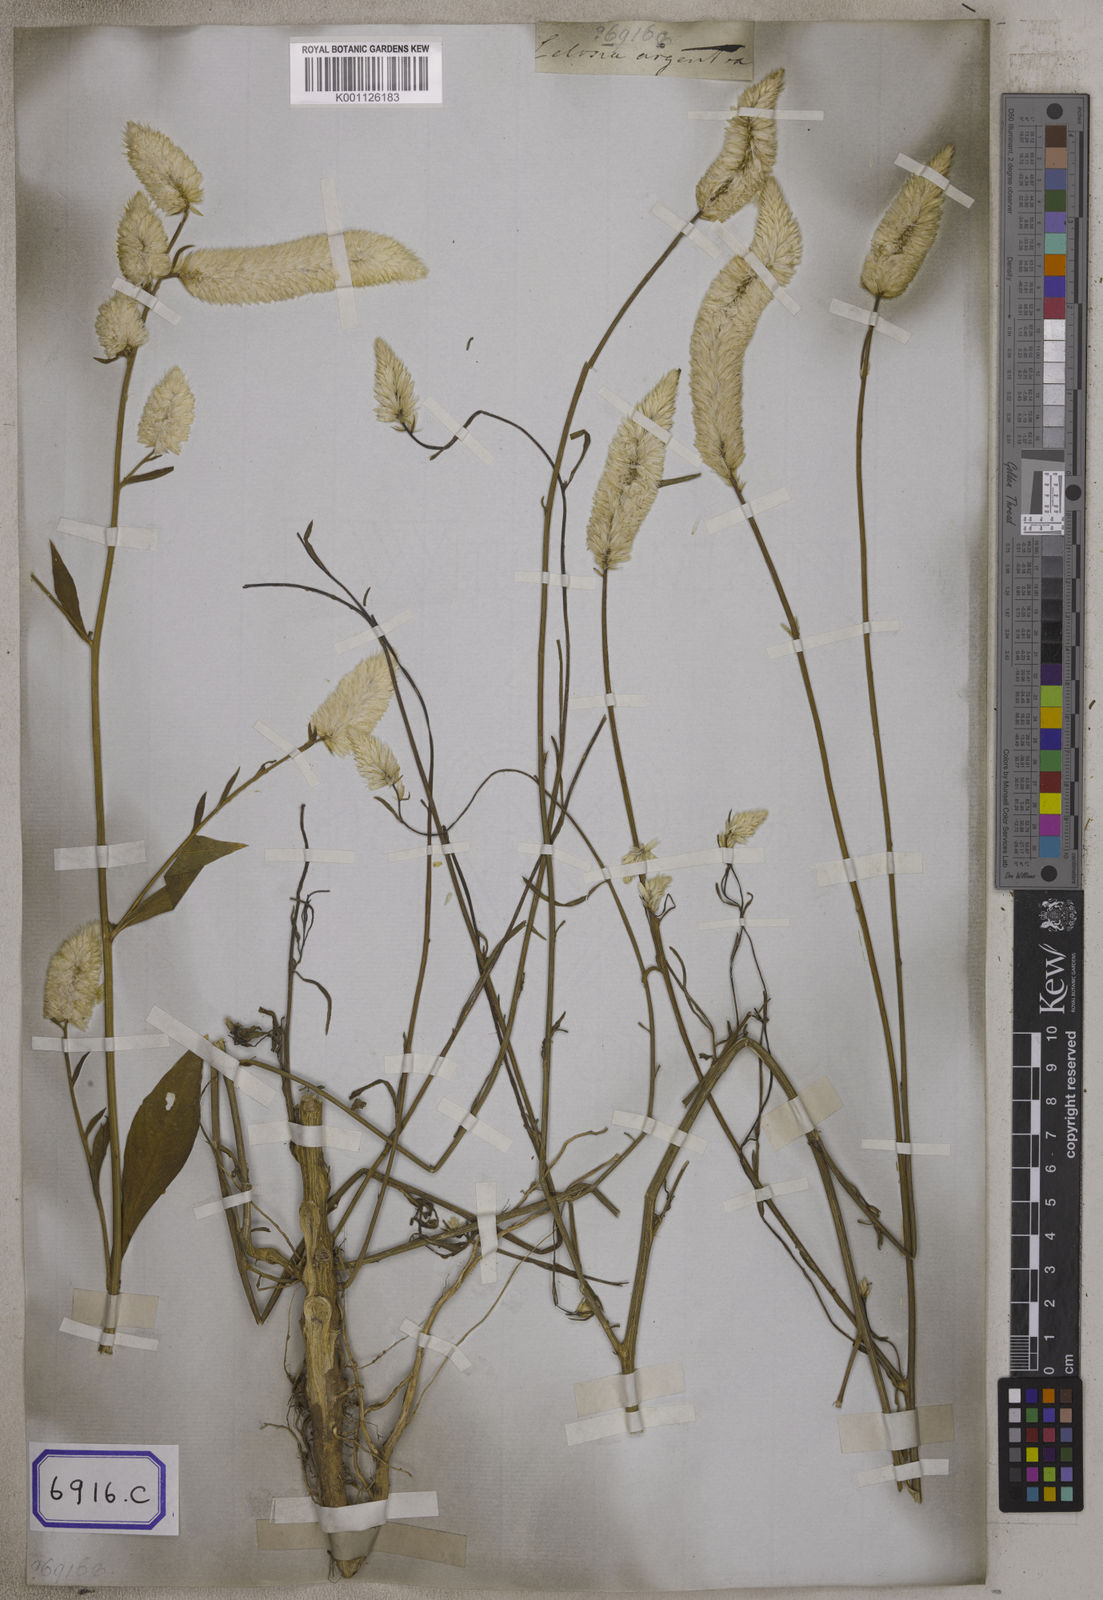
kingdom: Plantae
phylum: Tracheophyta
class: Magnoliopsida
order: Caryophyllales
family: Amaranthaceae
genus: Celosia
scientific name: Celosia argentea
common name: Feather cockscomb
